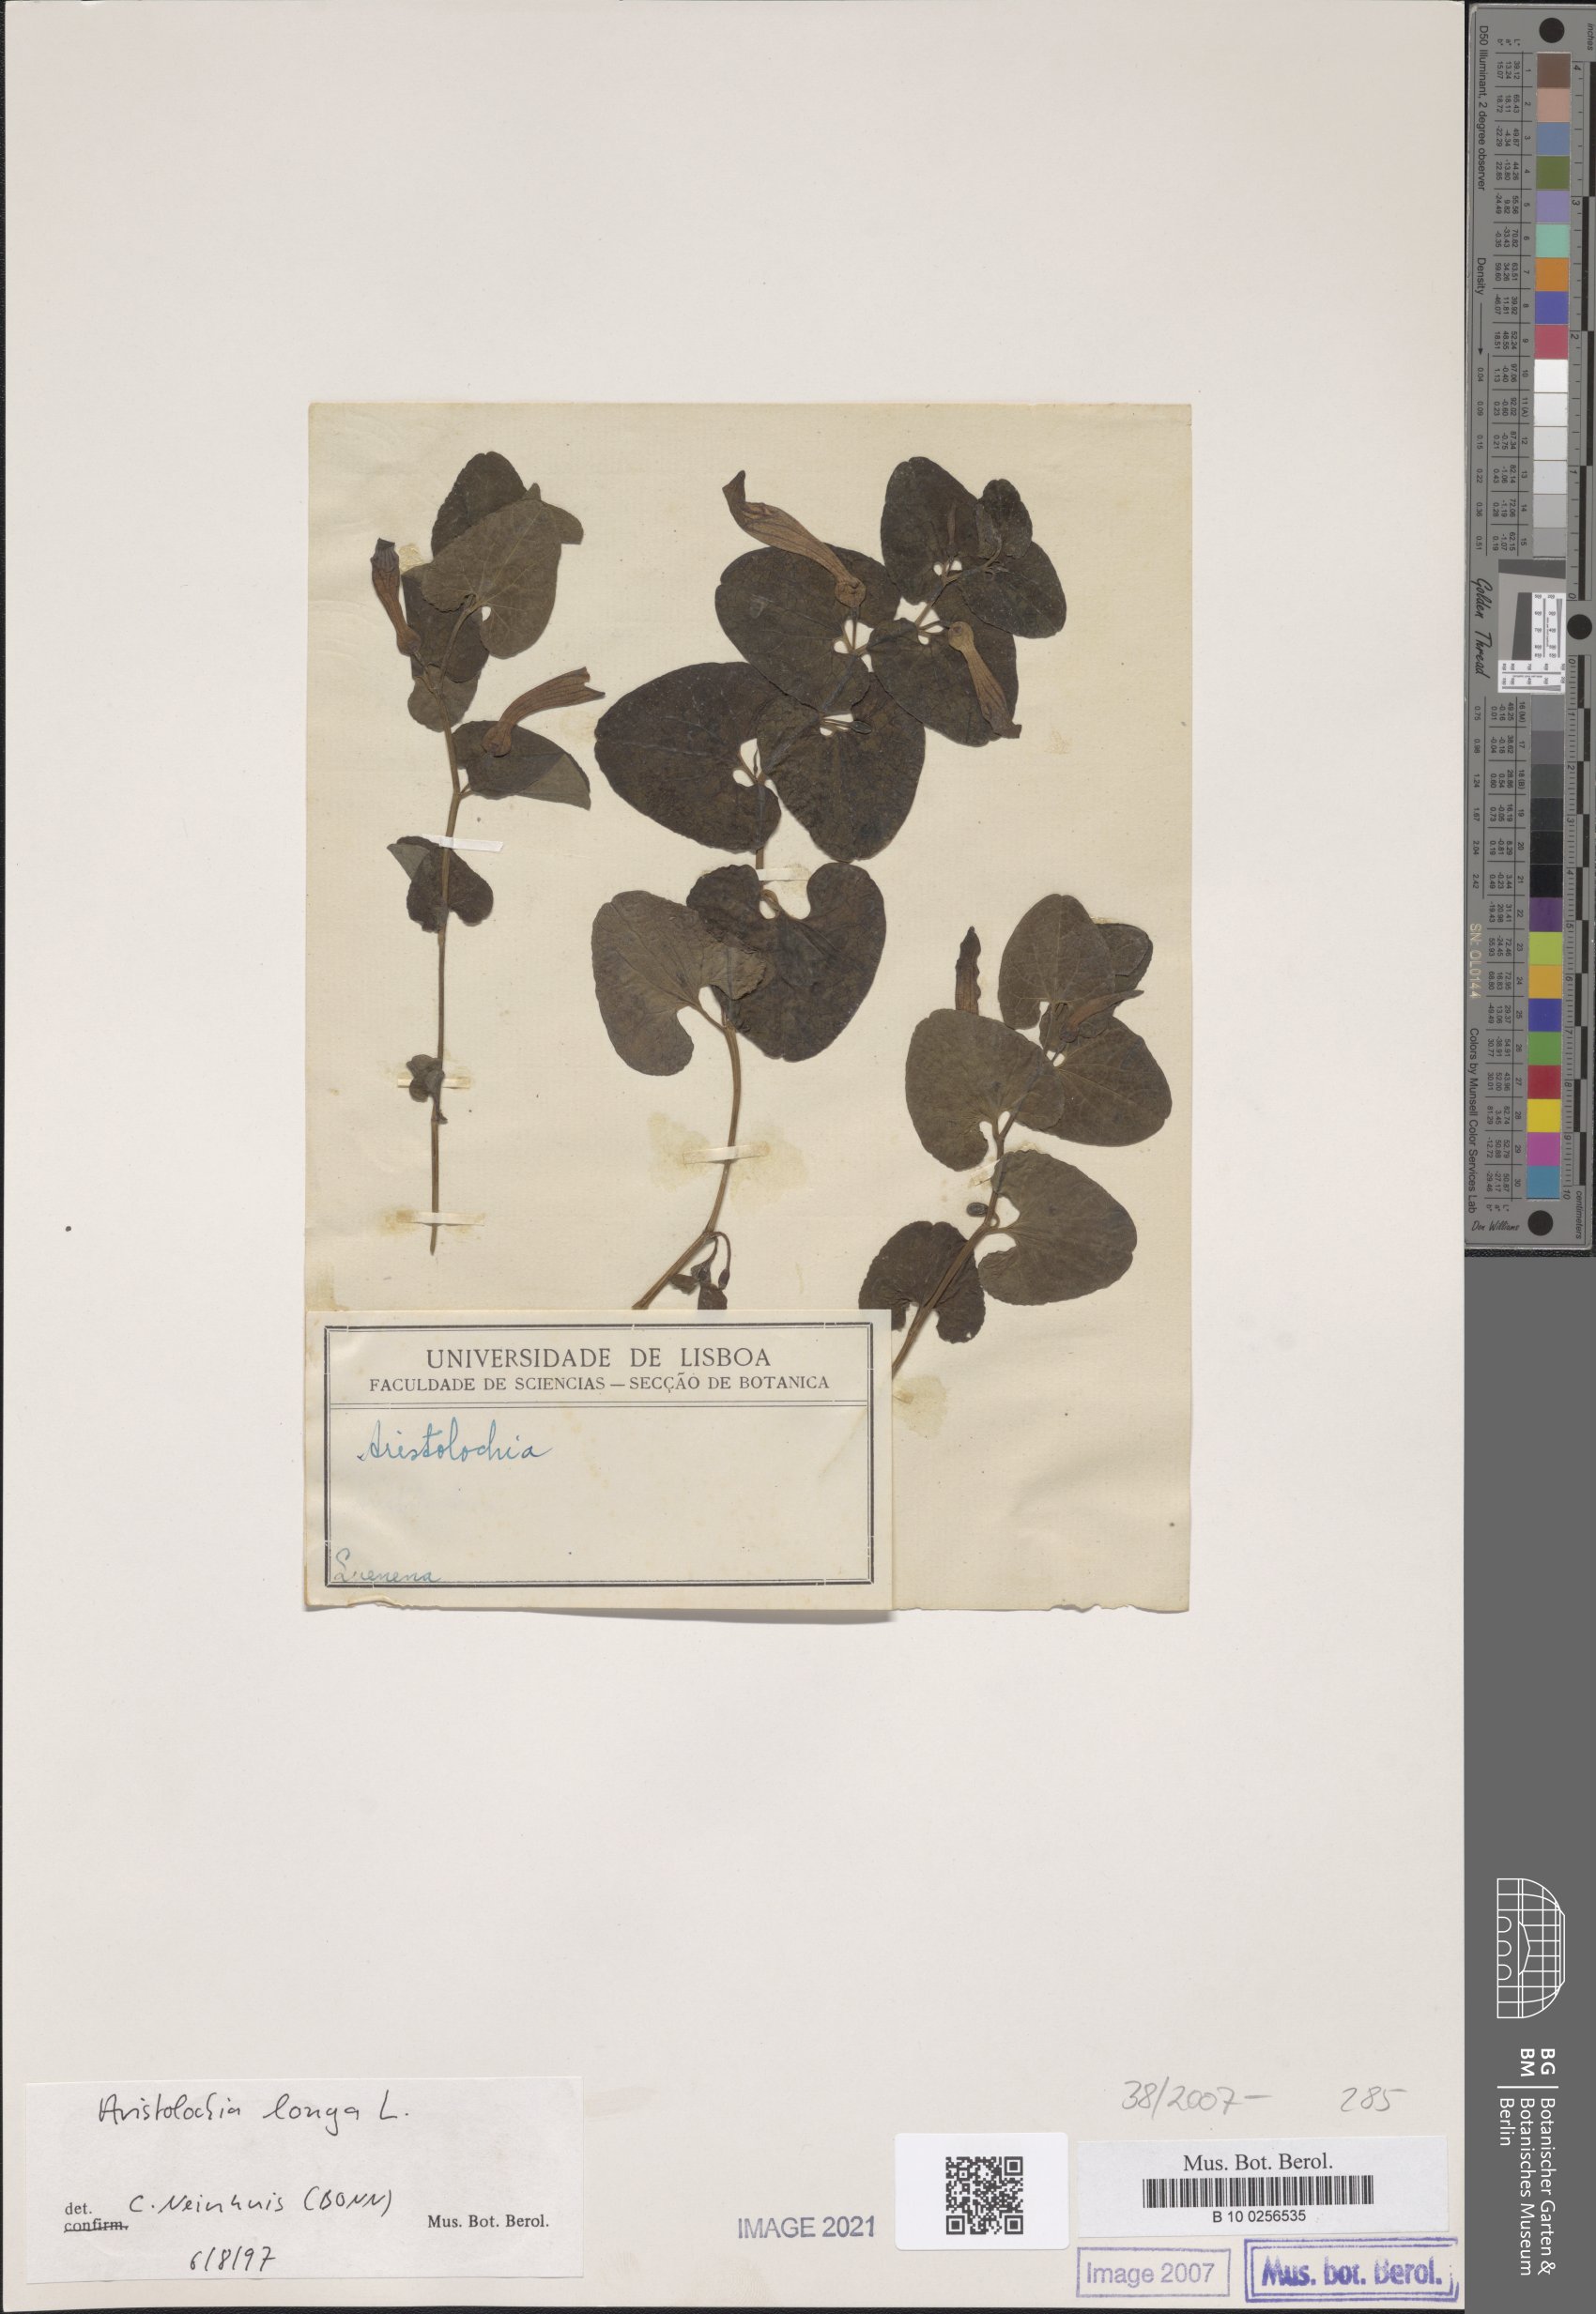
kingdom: Plantae
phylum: Tracheophyta
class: Magnoliopsida
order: Piperales
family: Aristolochiaceae
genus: Aristolochia
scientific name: Aristolochia fontanesii
